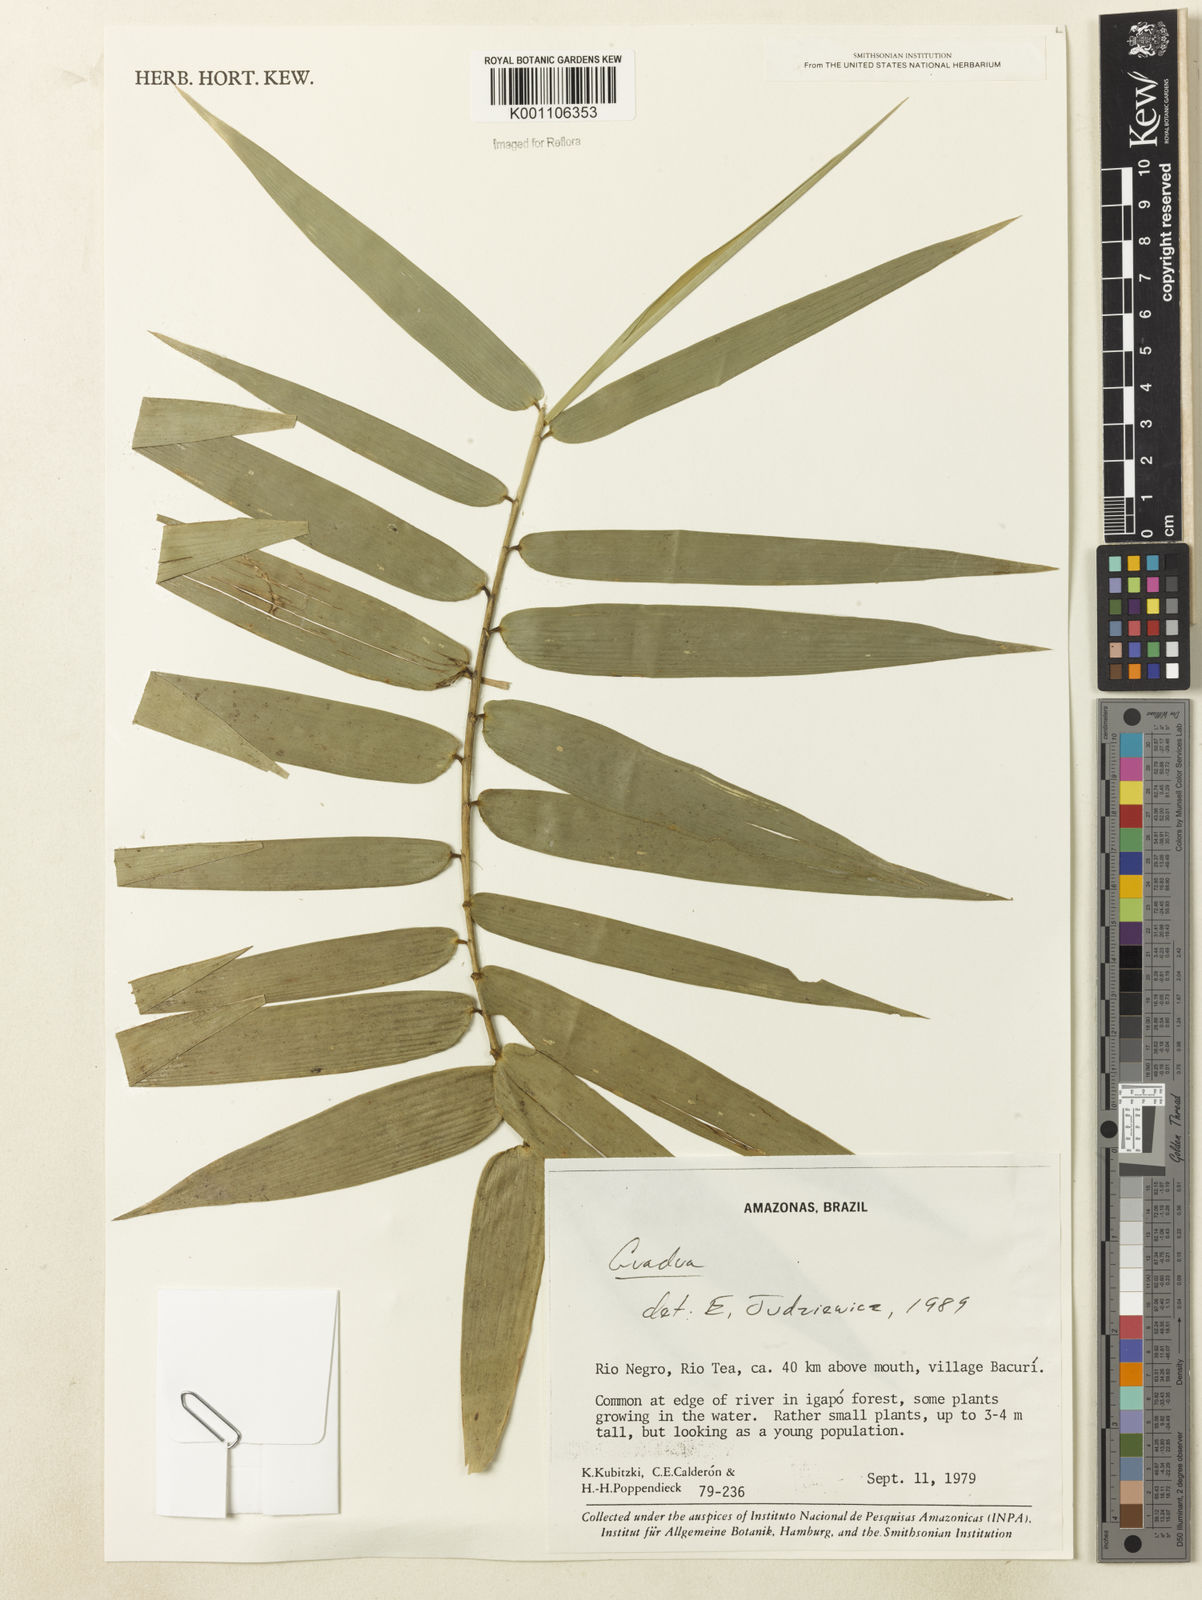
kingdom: Plantae
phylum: Tracheophyta
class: Liliopsida
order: Poales
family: Poaceae
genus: Guadua
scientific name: Guadua
